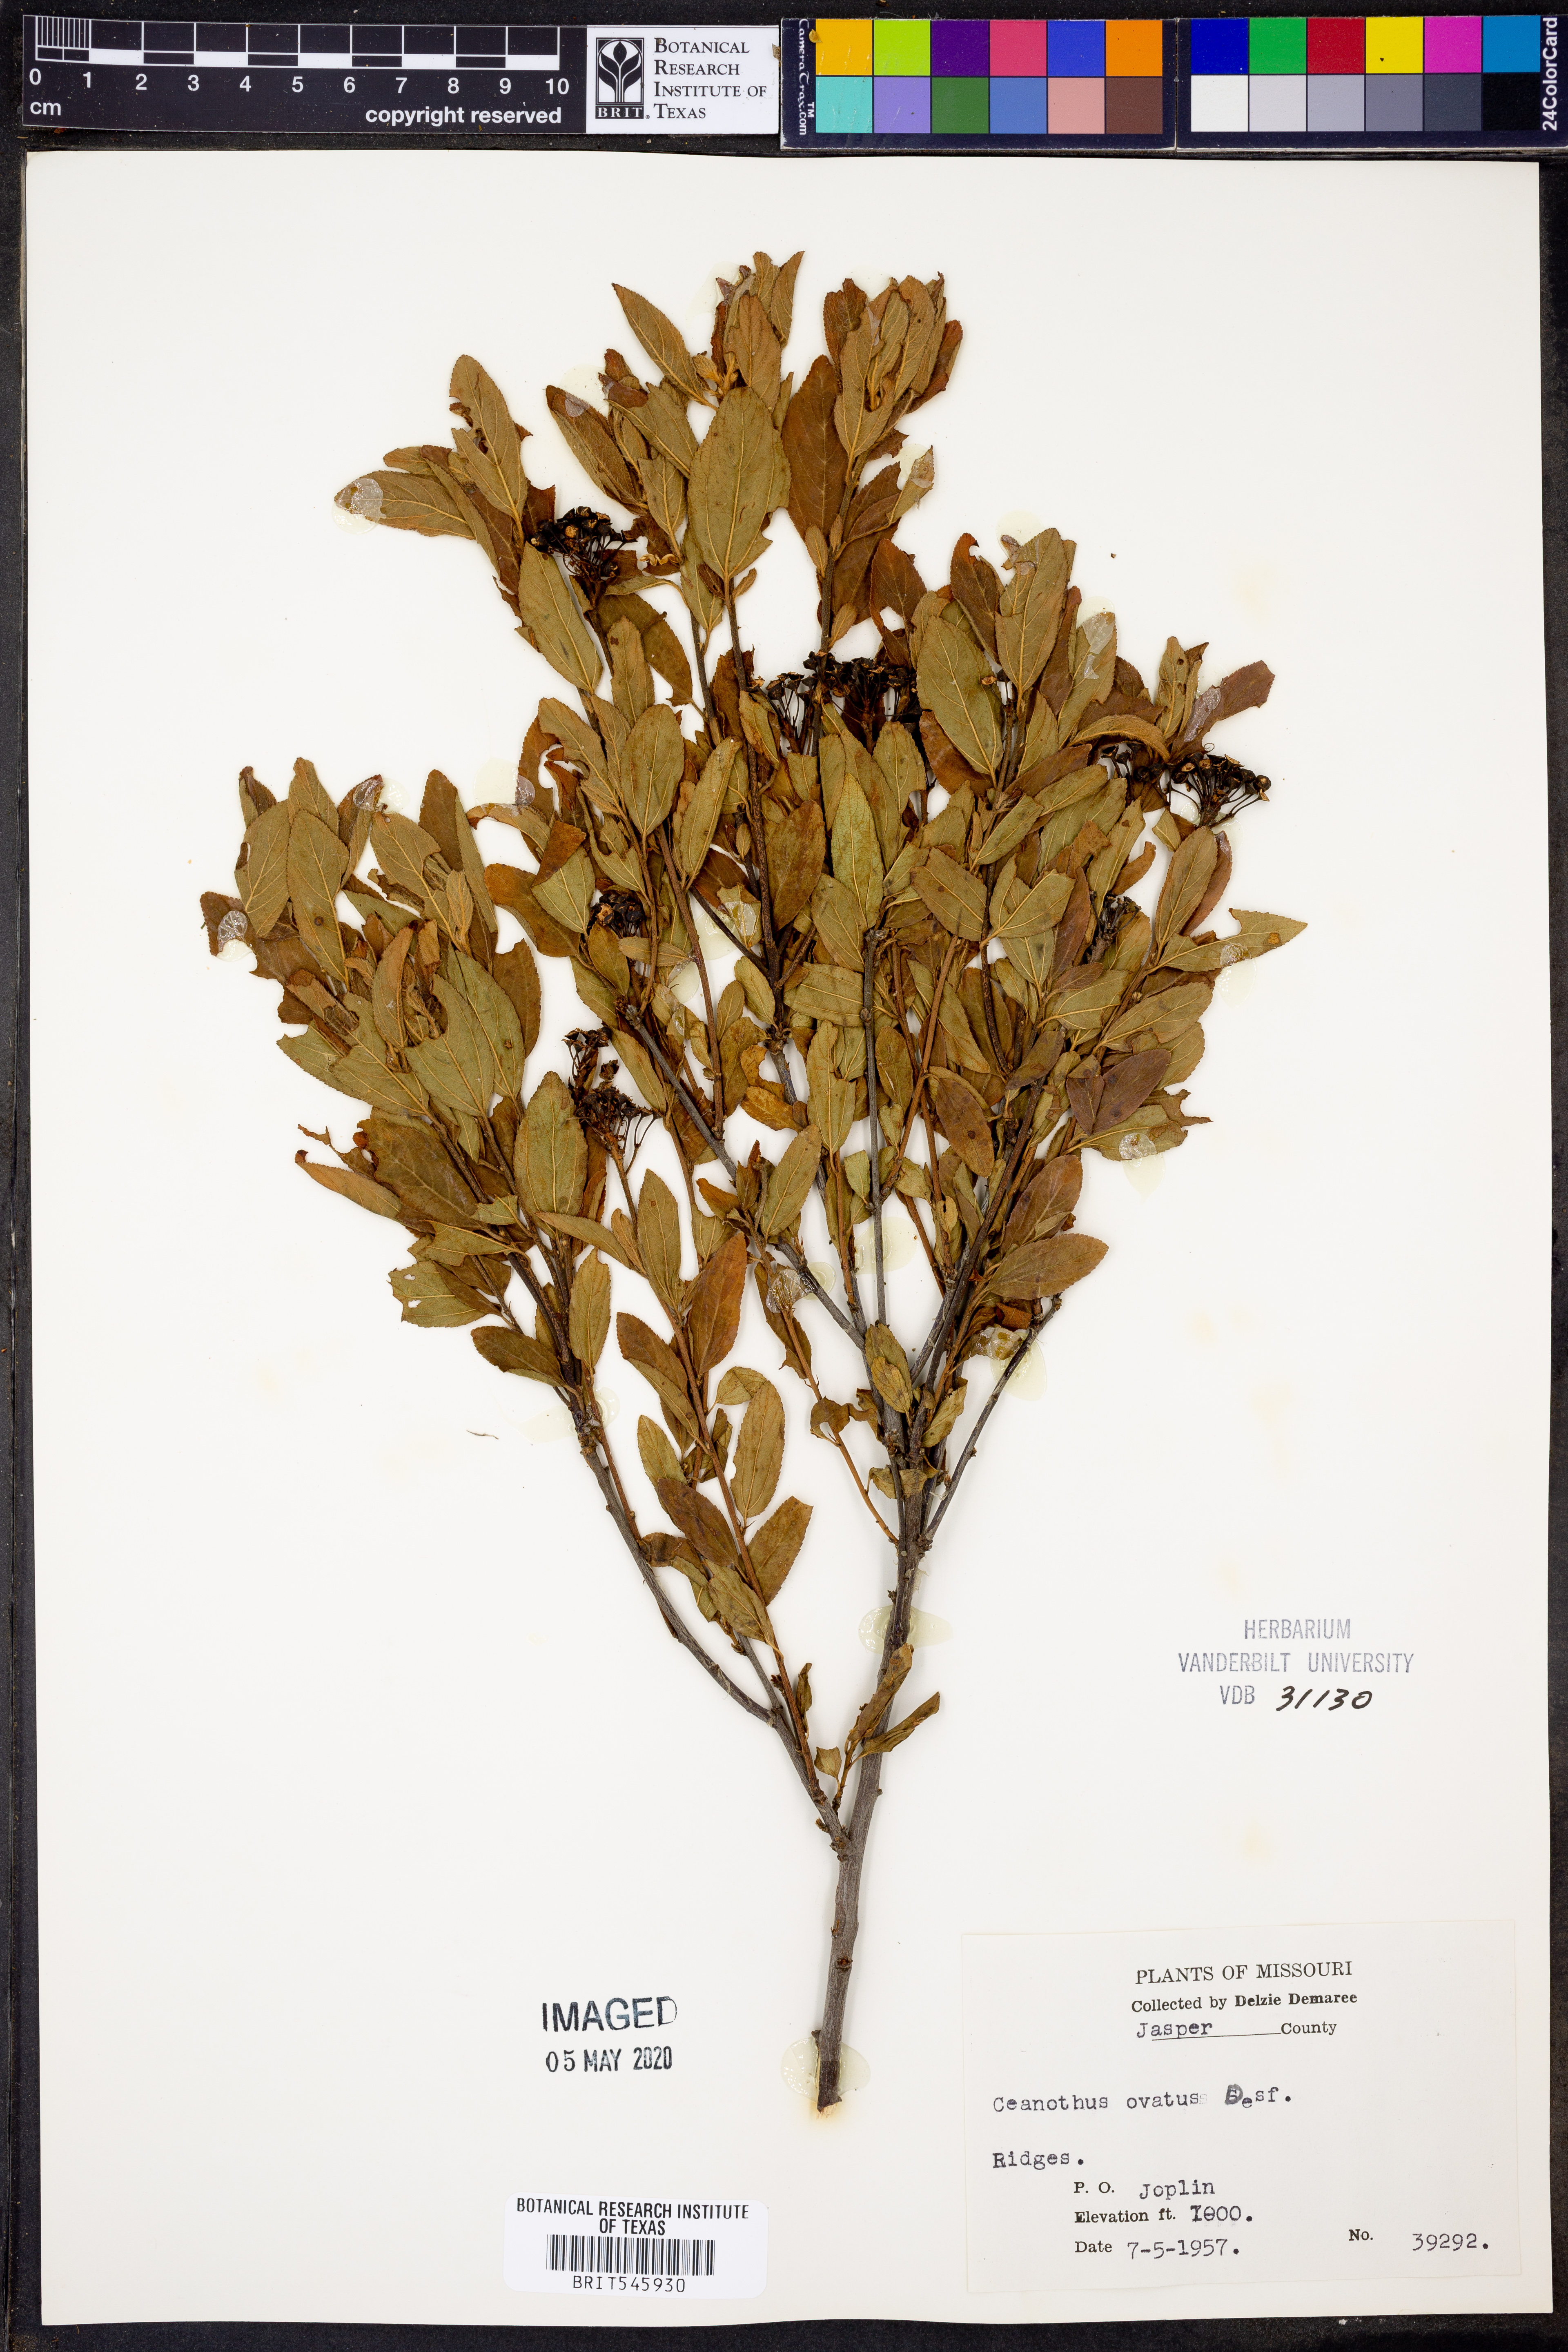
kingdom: Plantae
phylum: Tracheophyta
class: Magnoliopsida
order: Rosales
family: Rhamnaceae
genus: Ceanothus
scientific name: Ceanothus herbaceus
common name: Inland ceanothus
